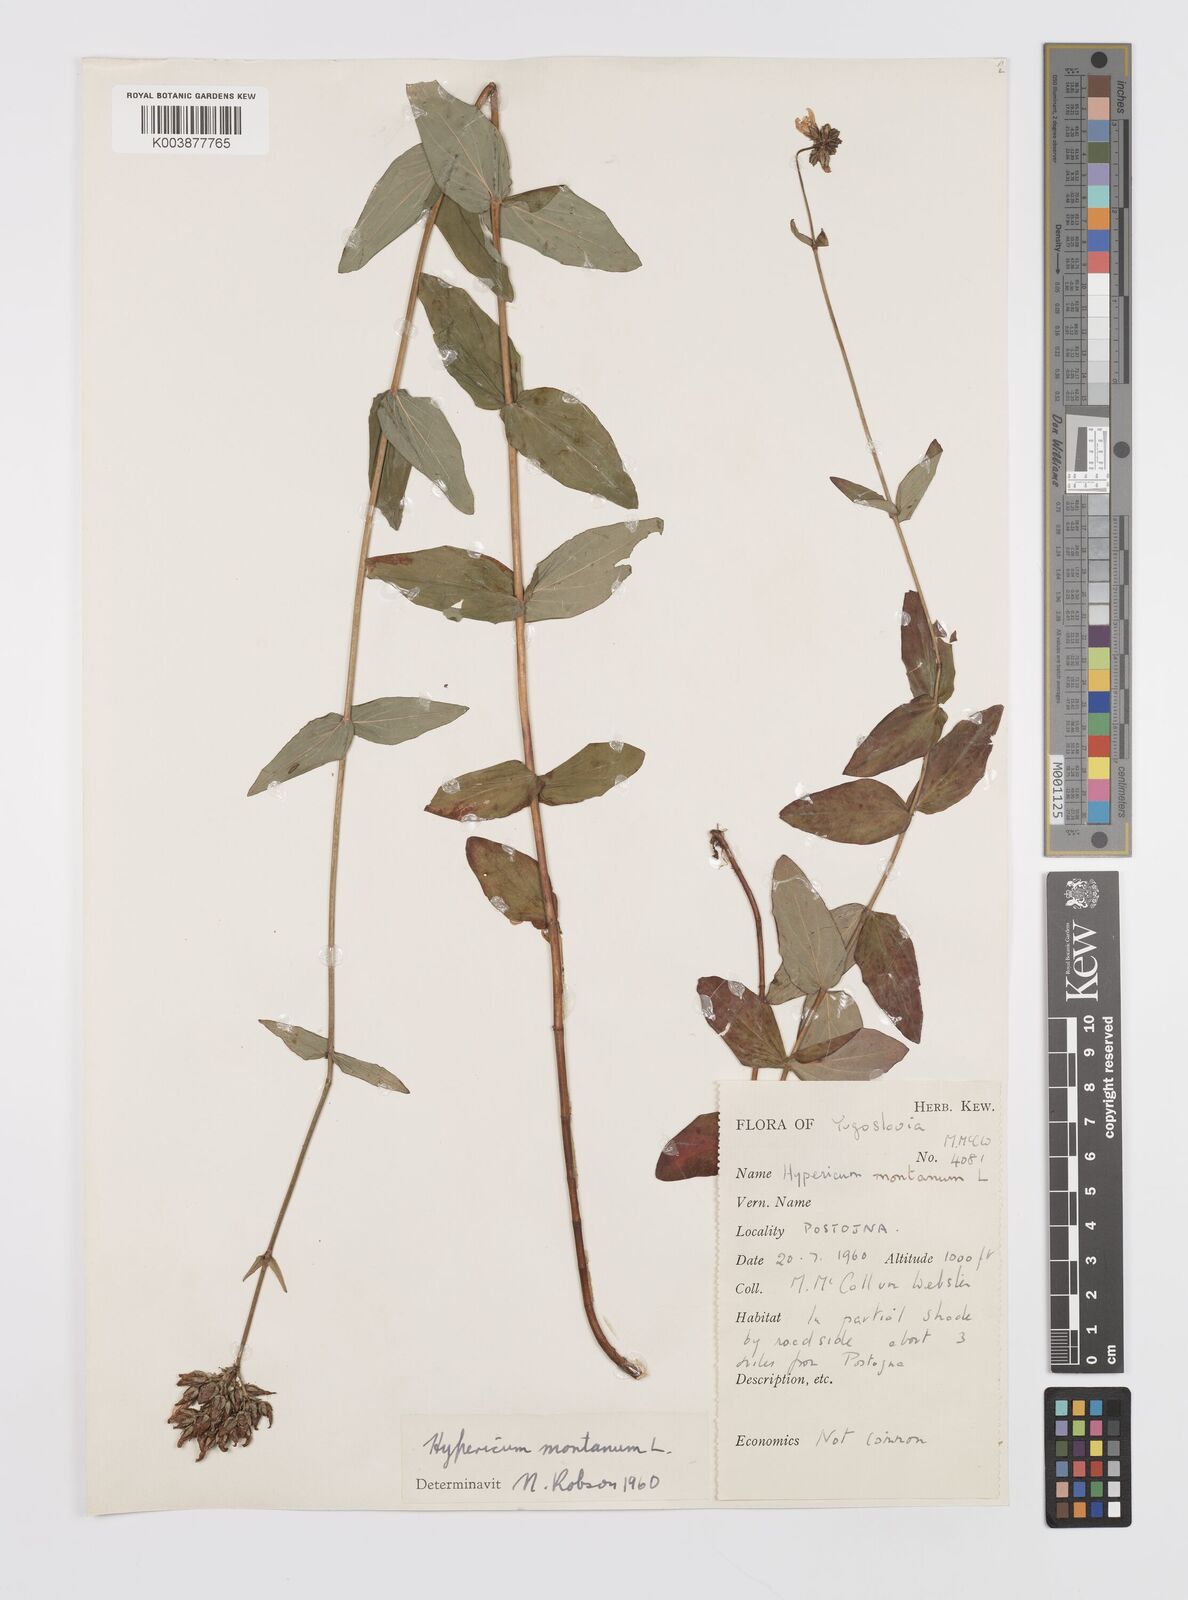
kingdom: Plantae
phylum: Tracheophyta
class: Magnoliopsida
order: Malpighiales
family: Hypericaceae
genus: Hypericum
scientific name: Hypericum montanum
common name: Pale st. john's-wort
